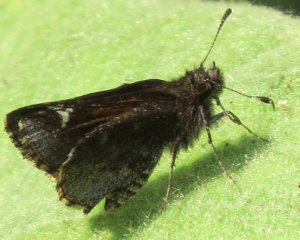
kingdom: Animalia
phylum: Arthropoda
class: Insecta
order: Lepidoptera
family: Hesperiidae
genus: Mastor
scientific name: Mastor vialis
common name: Common Roadside-Skipper
